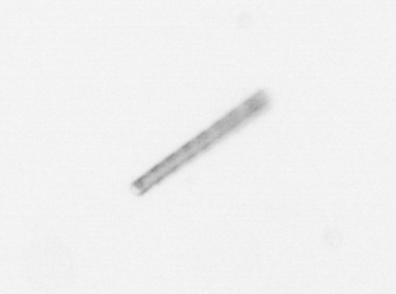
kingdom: Chromista
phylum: Ochrophyta
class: Bacillariophyceae
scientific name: Bacillariophyceae
